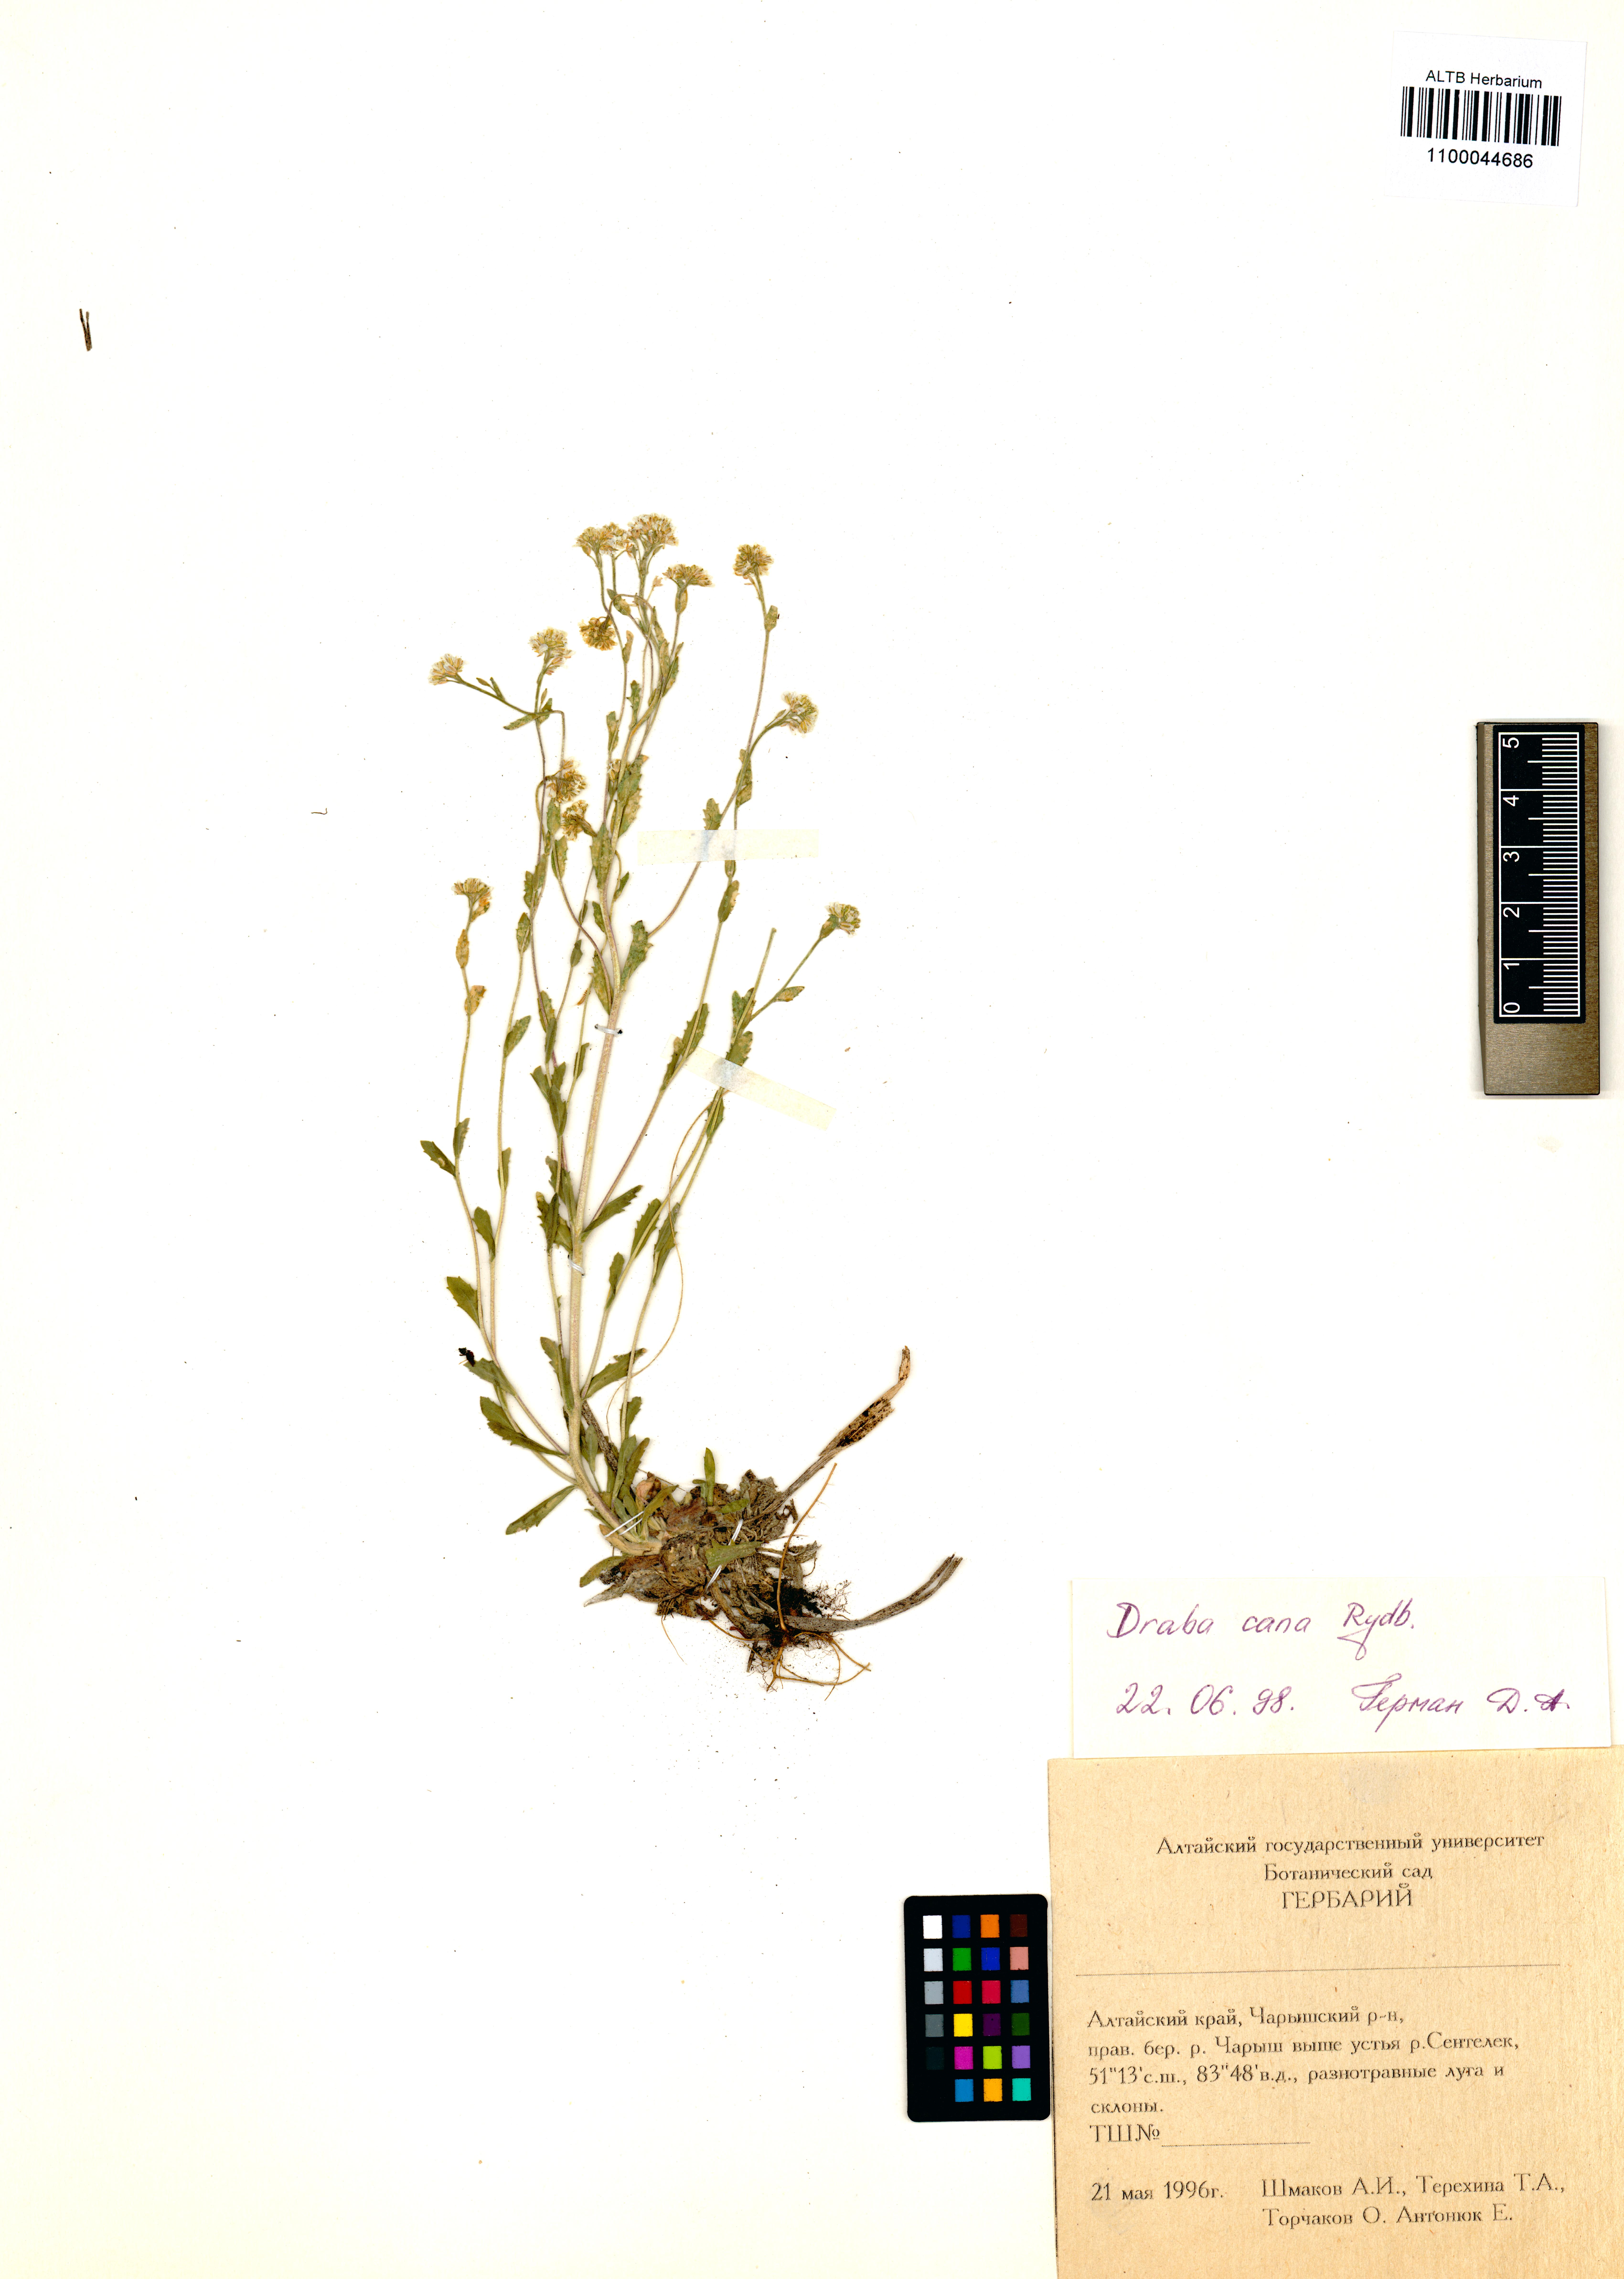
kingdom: Plantae
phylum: Tracheophyta
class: Magnoliopsida
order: Brassicales
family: Brassicaceae
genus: Draba
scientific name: Draba cana
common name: Hoary draba
